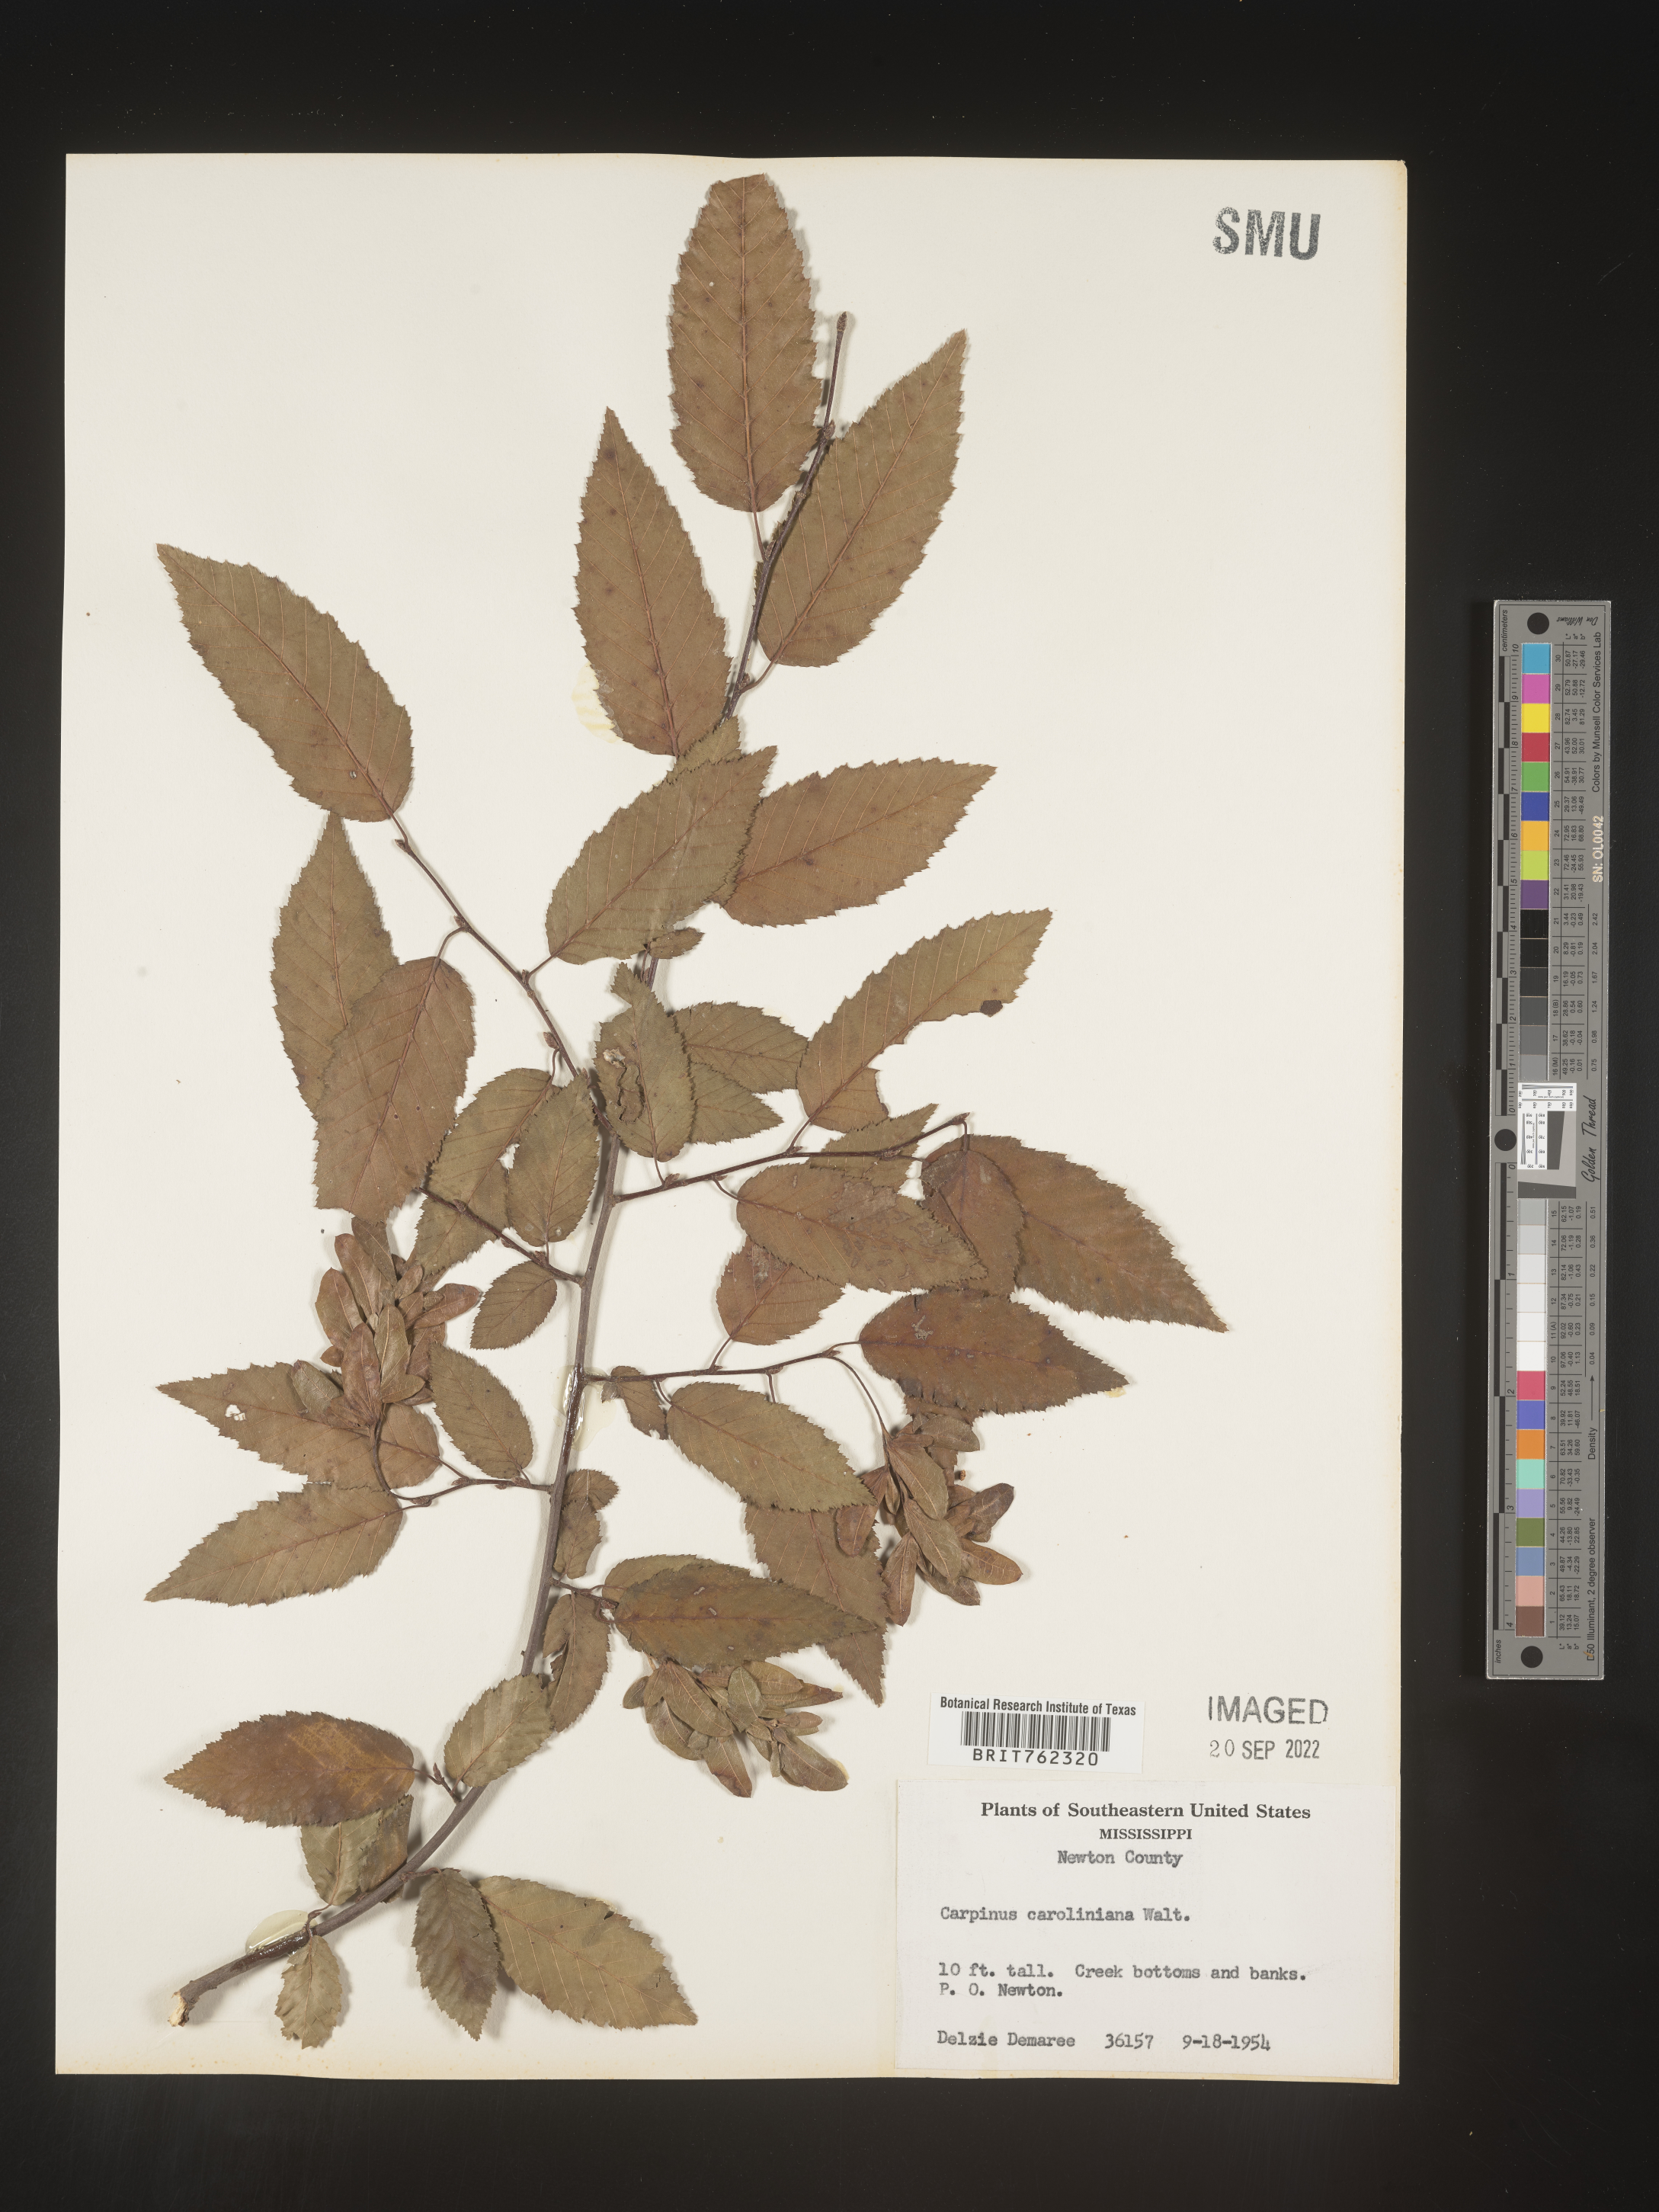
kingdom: Plantae
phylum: Tracheophyta
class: Magnoliopsida
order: Fagales
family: Betulaceae
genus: Carpinus
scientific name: Carpinus caroliniana
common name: American hornbeam
